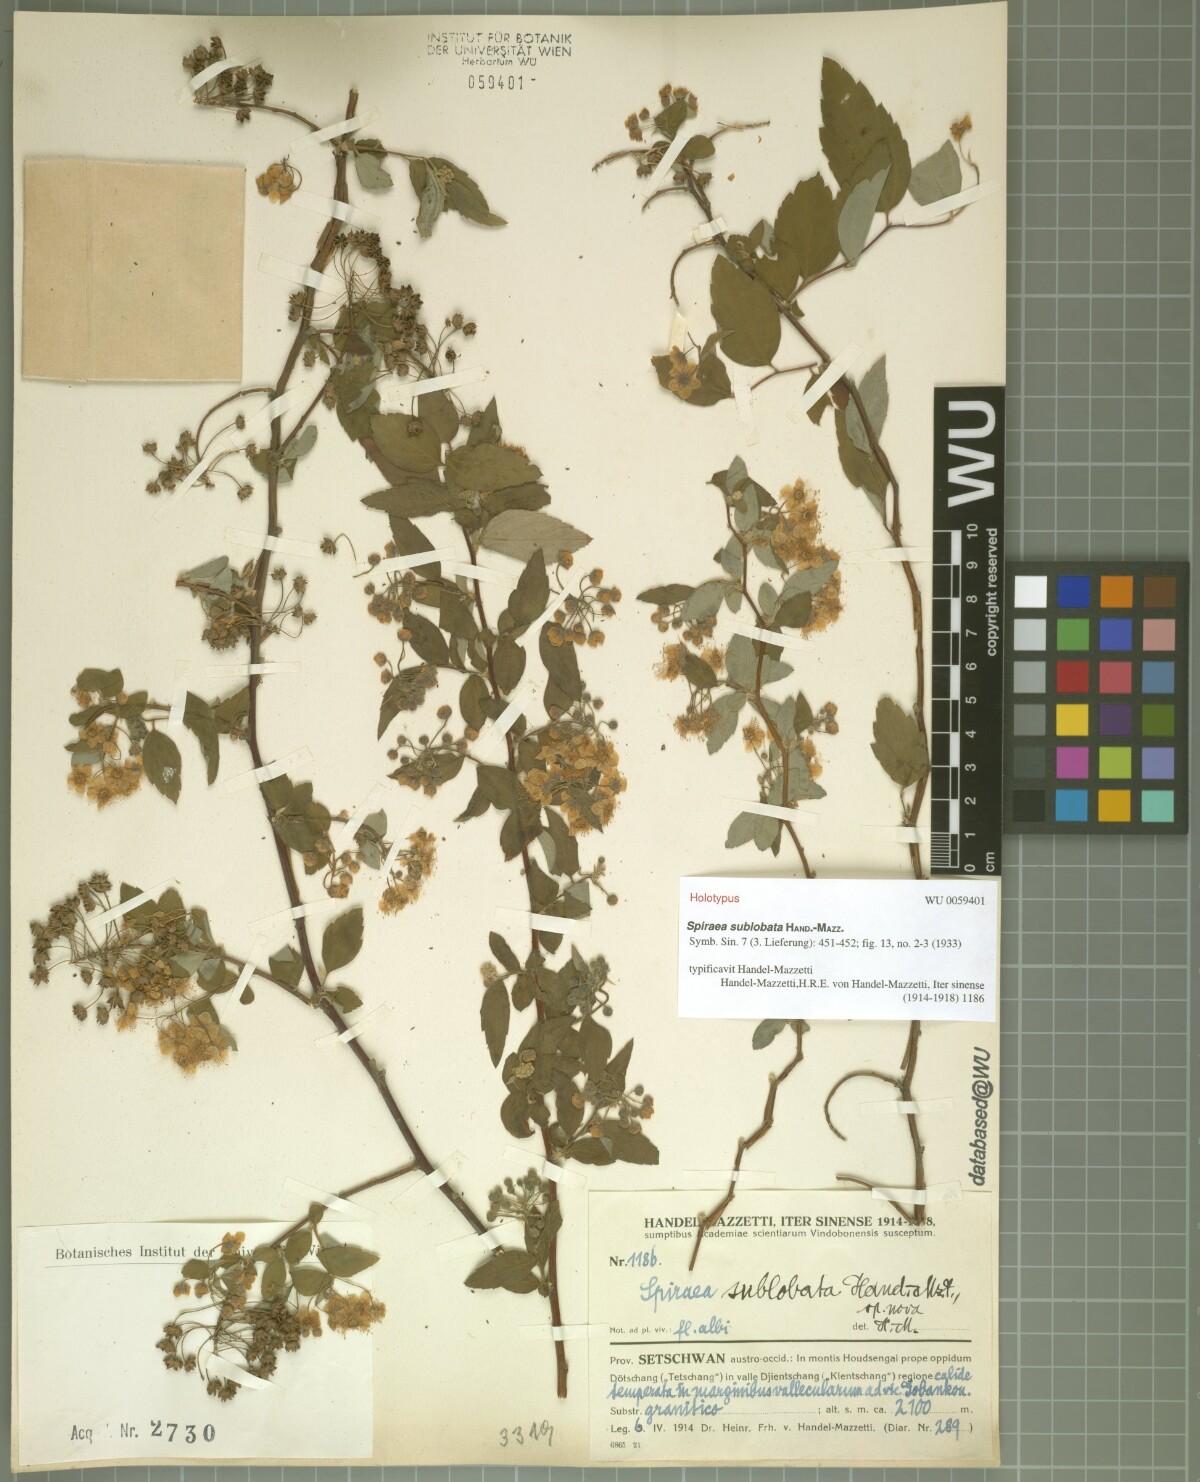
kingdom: Plantae
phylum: Tracheophyta
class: Magnoliopsida
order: Rosales
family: Rosaceae
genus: Spiraea
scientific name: Spiraea sublobata
